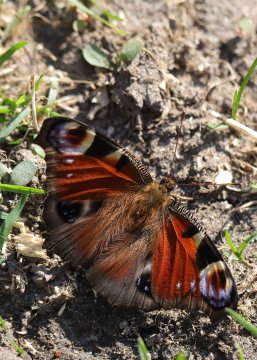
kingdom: Animalia
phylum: Arthropoda
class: Insecta
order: Lepidoptera
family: Nymphalidae
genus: Aglais
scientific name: Aglais io
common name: European Peacock
